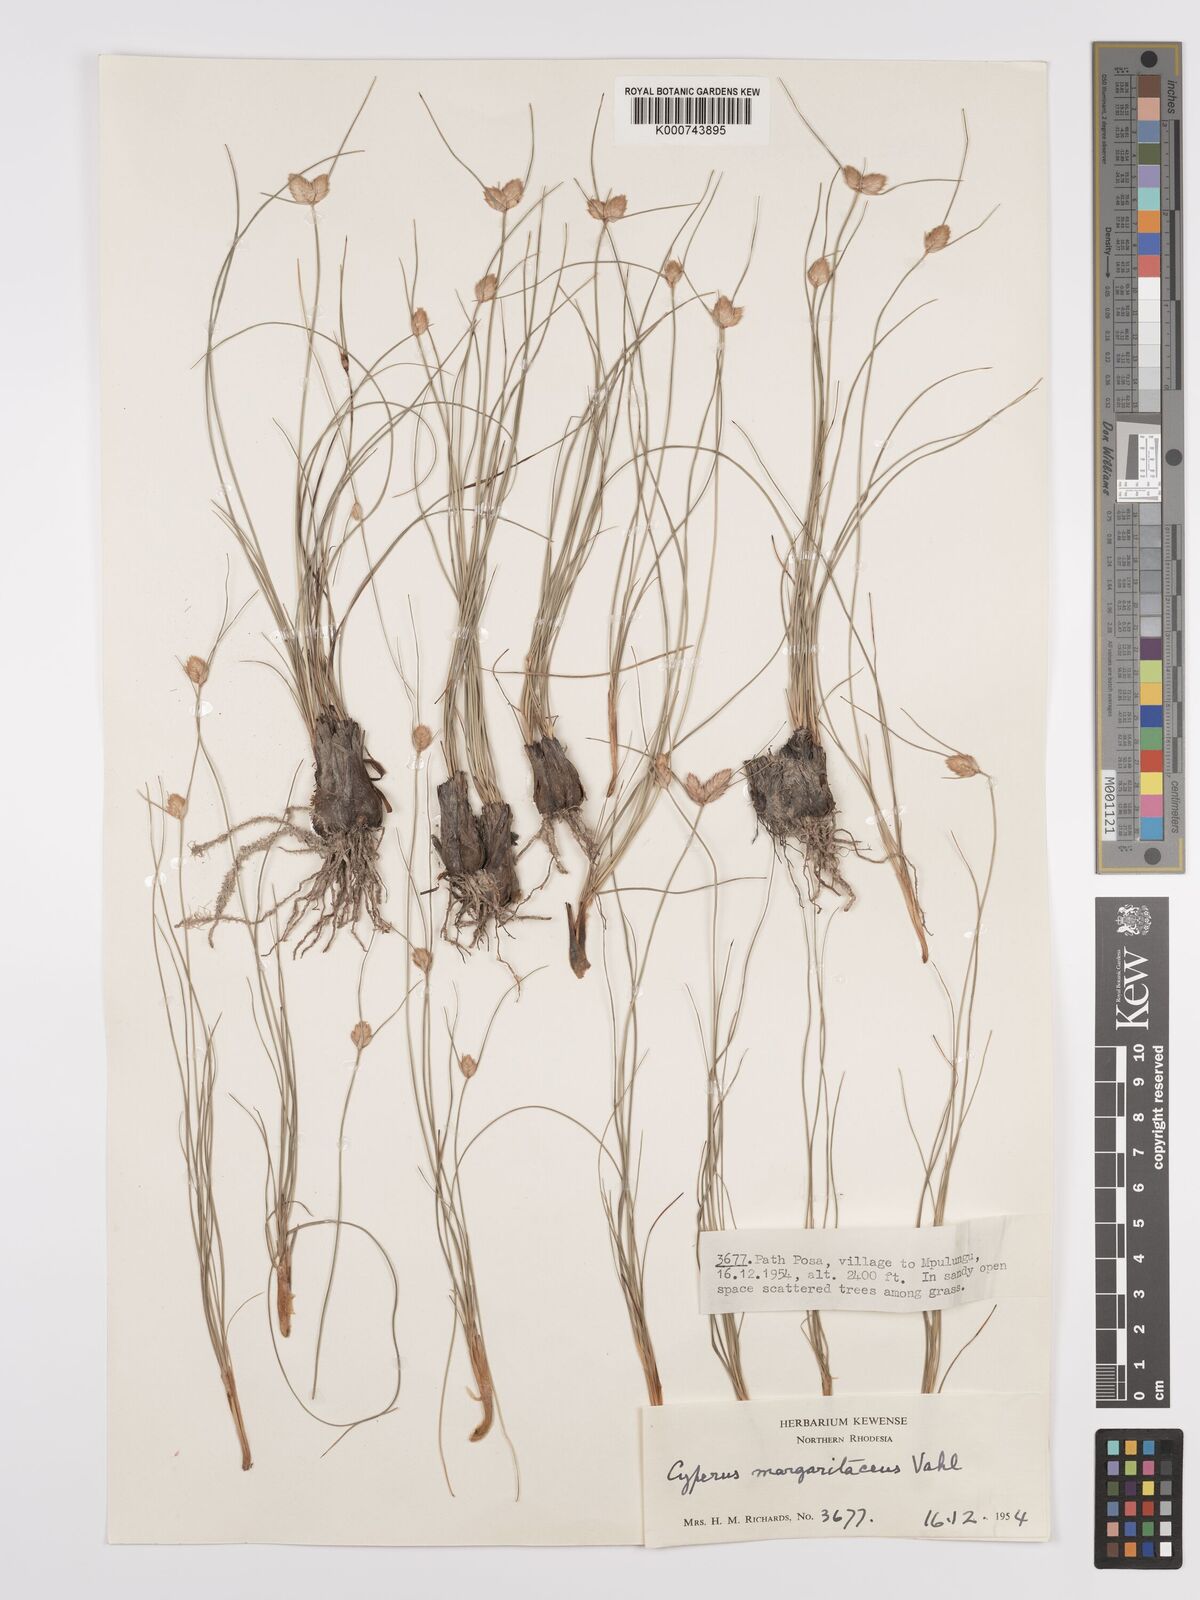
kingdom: Plantae
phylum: Tracheophyta
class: Liliopsida
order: Poales
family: Cyperaceae
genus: Cyperus
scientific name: Cyperus margaritaceus
